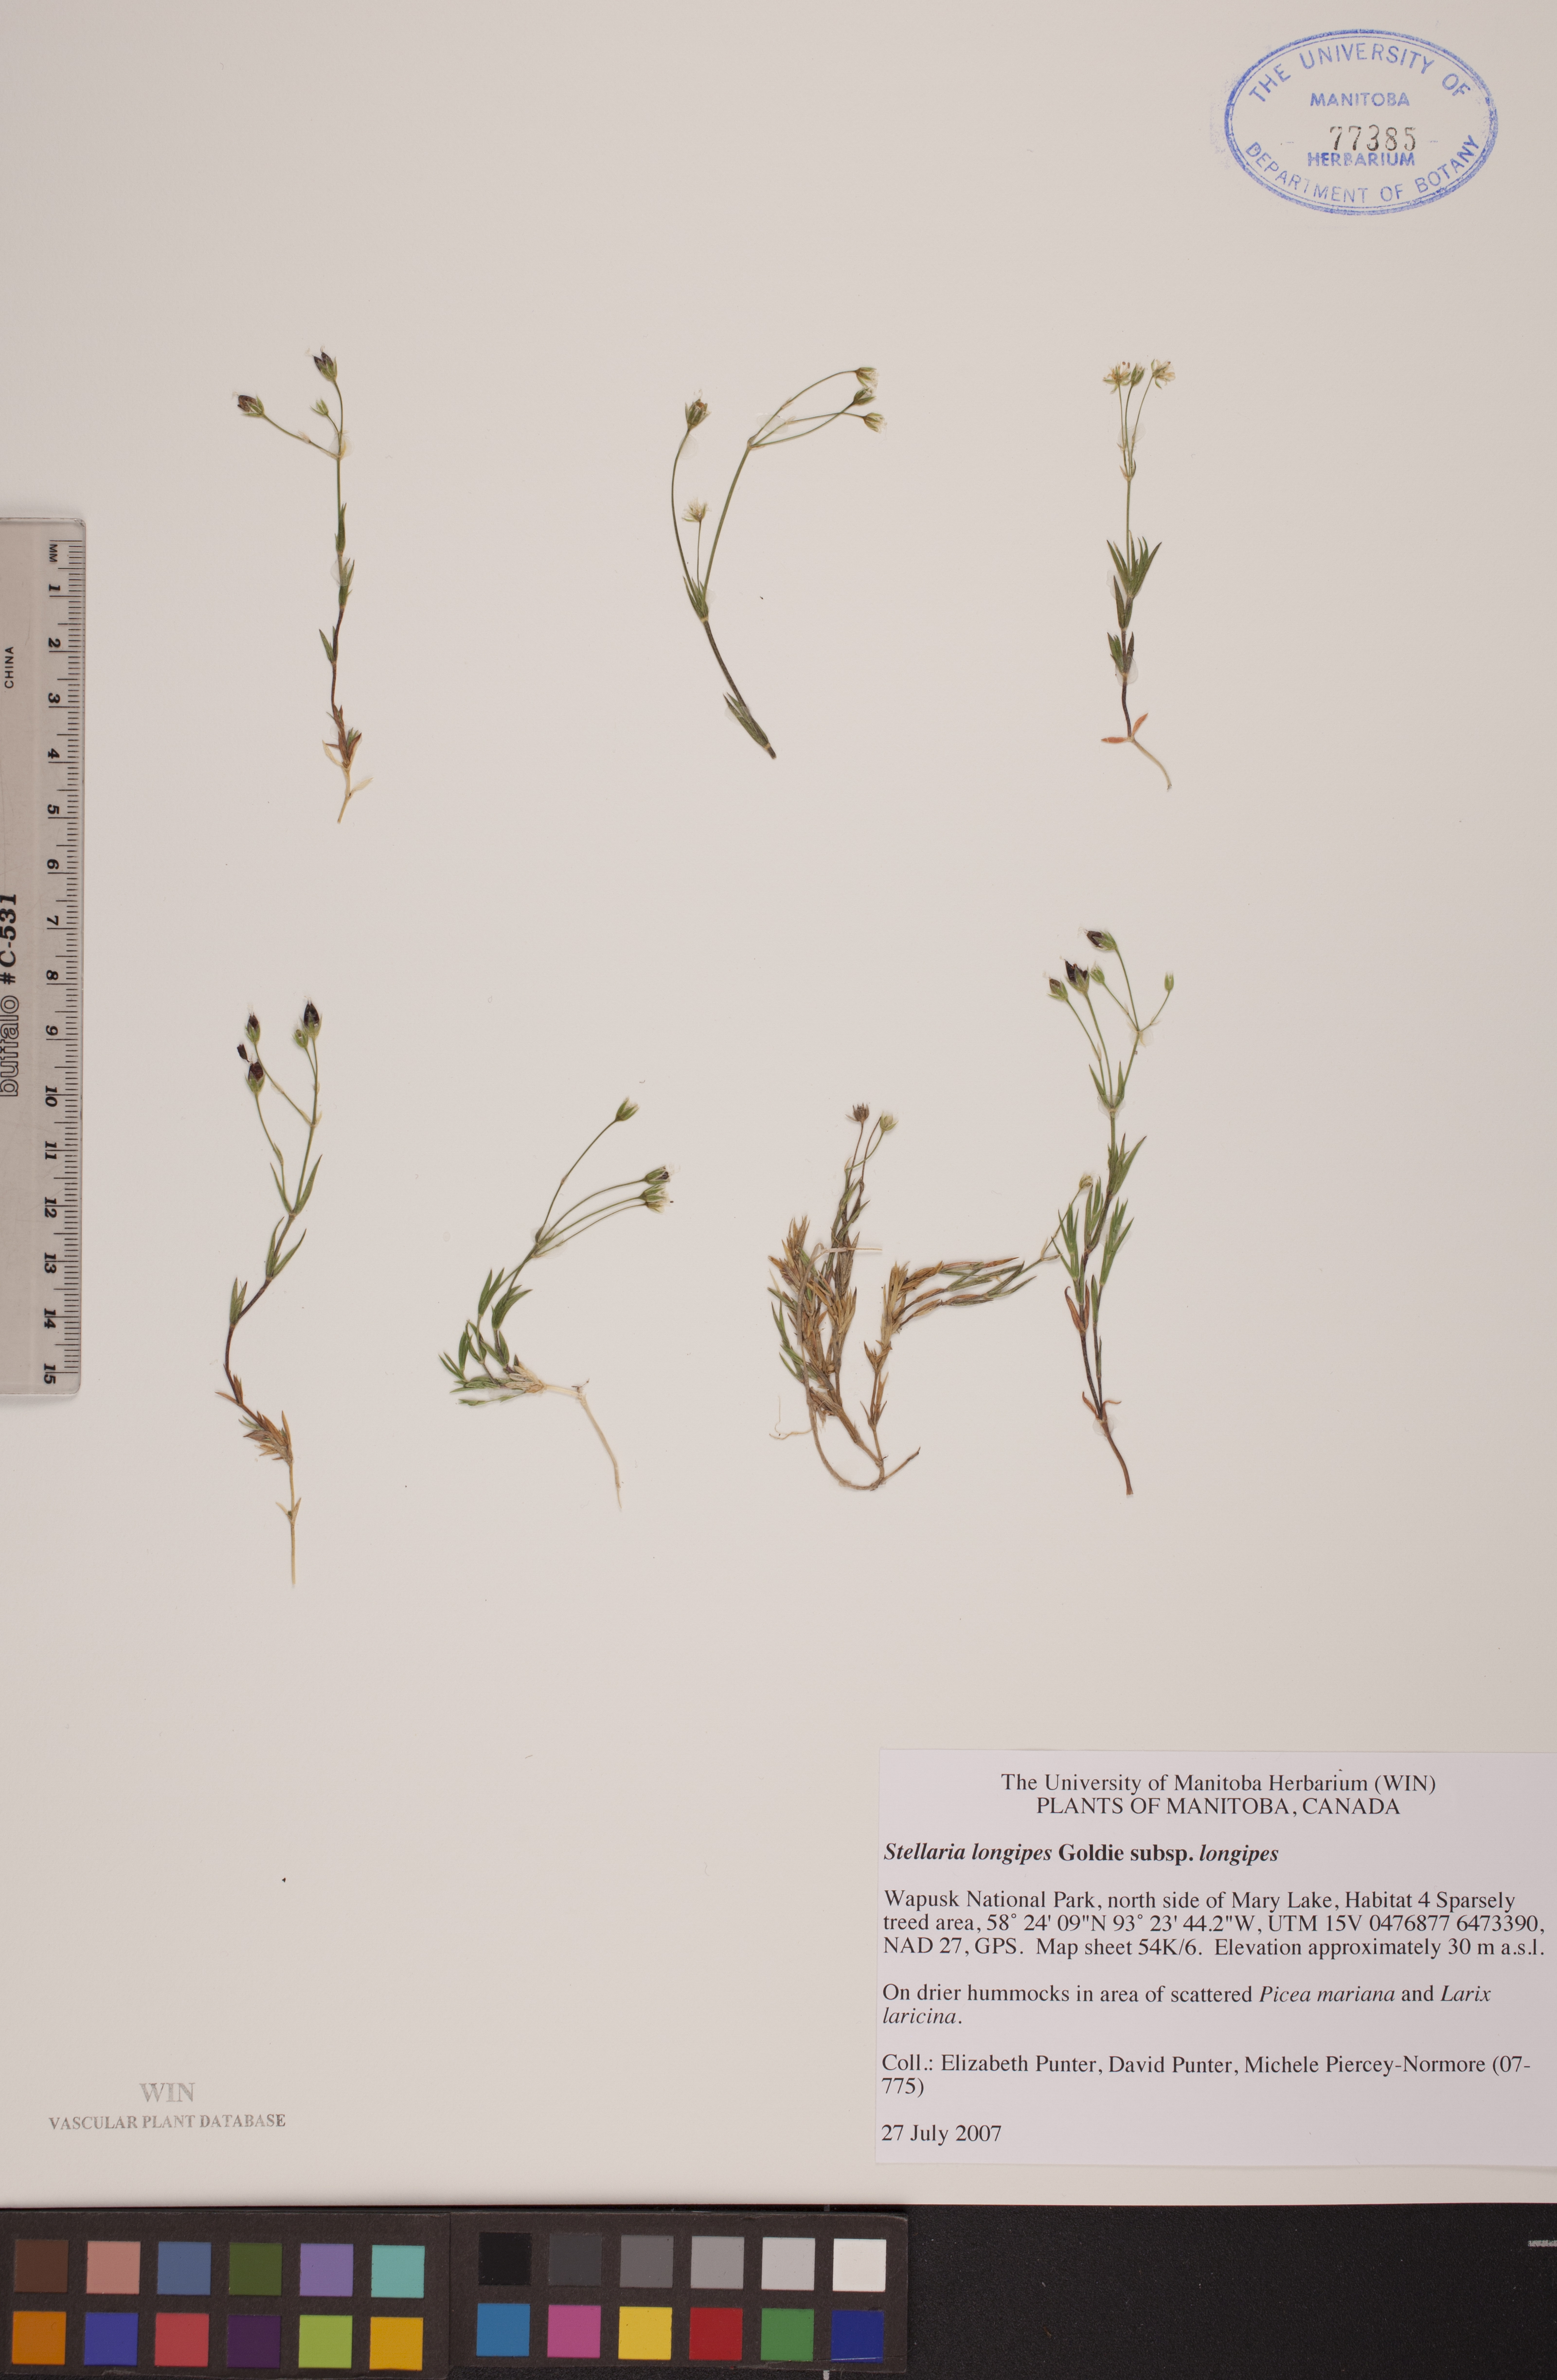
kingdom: Plantae
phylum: Tracheophyta
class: Magnoliopsida
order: Caryophyllales
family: Caryophyllaceae
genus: Stellaria
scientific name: Stellaria longipes
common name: Goldie's starwort
